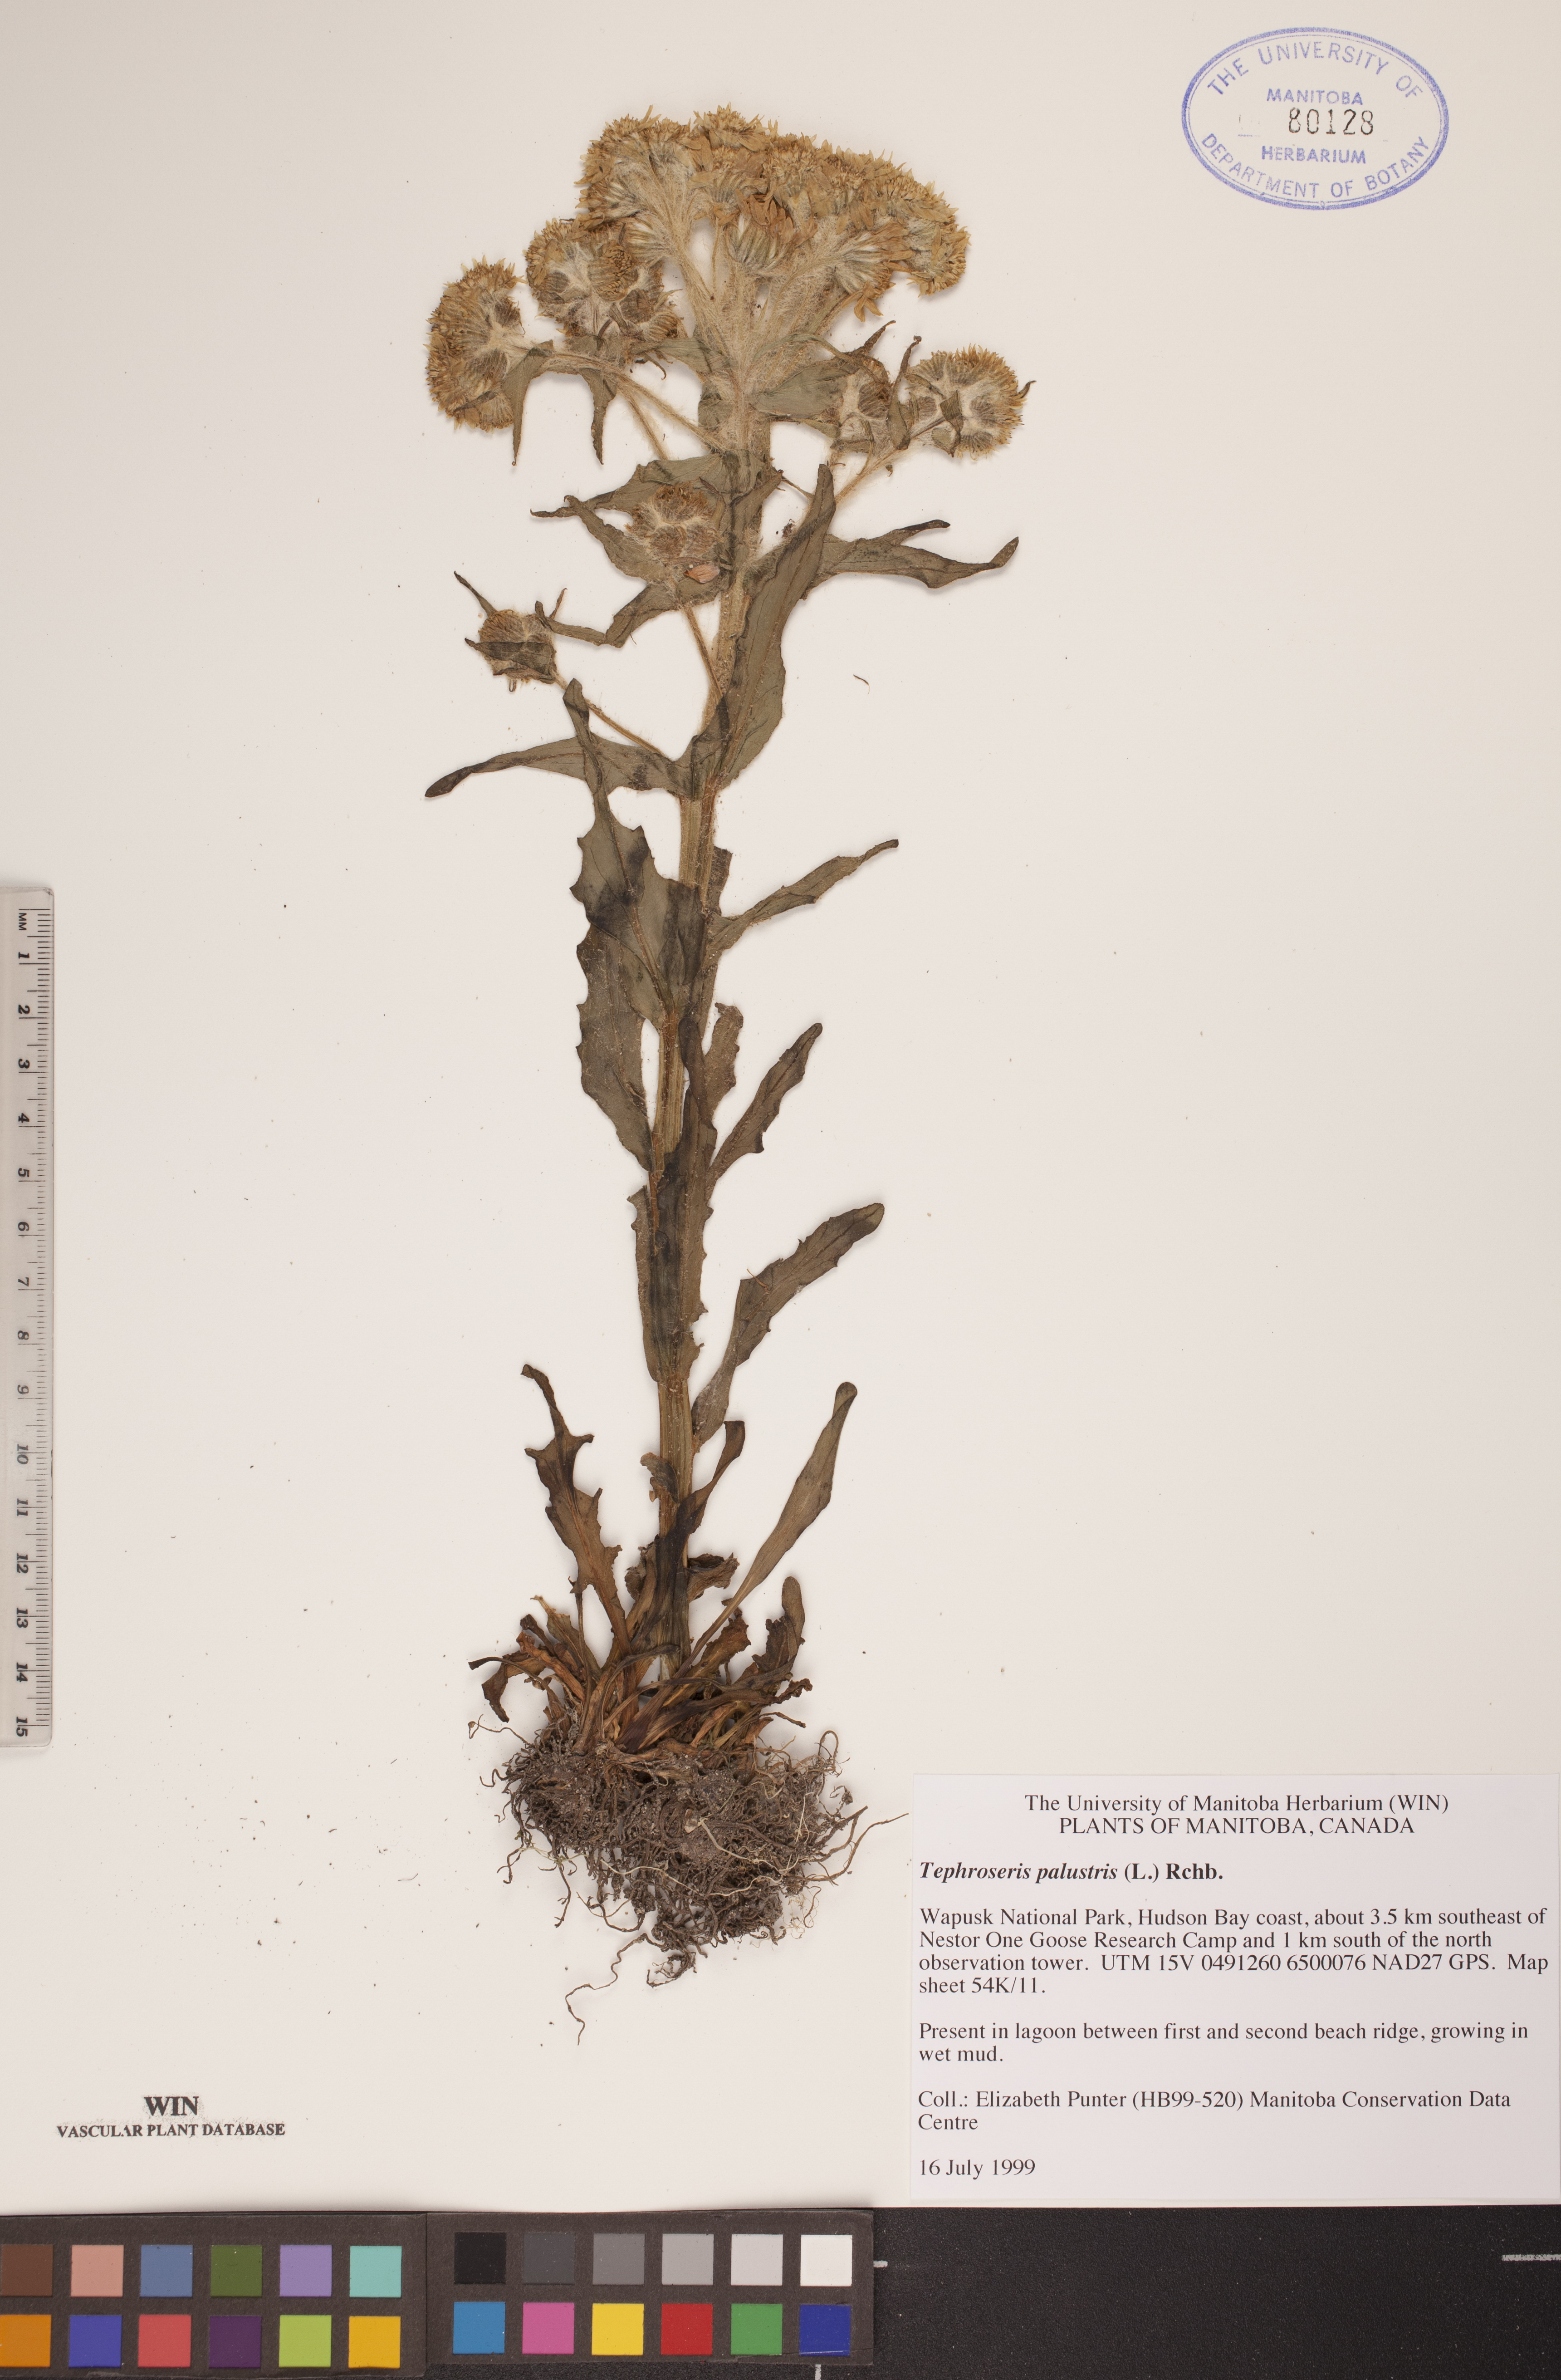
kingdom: Plantae
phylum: Tracheophyta
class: Magnoliopsida
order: Asterales
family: Asteraceae
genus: Tephroseris
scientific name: Tephroseris palustris
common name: Marsh fleawort
